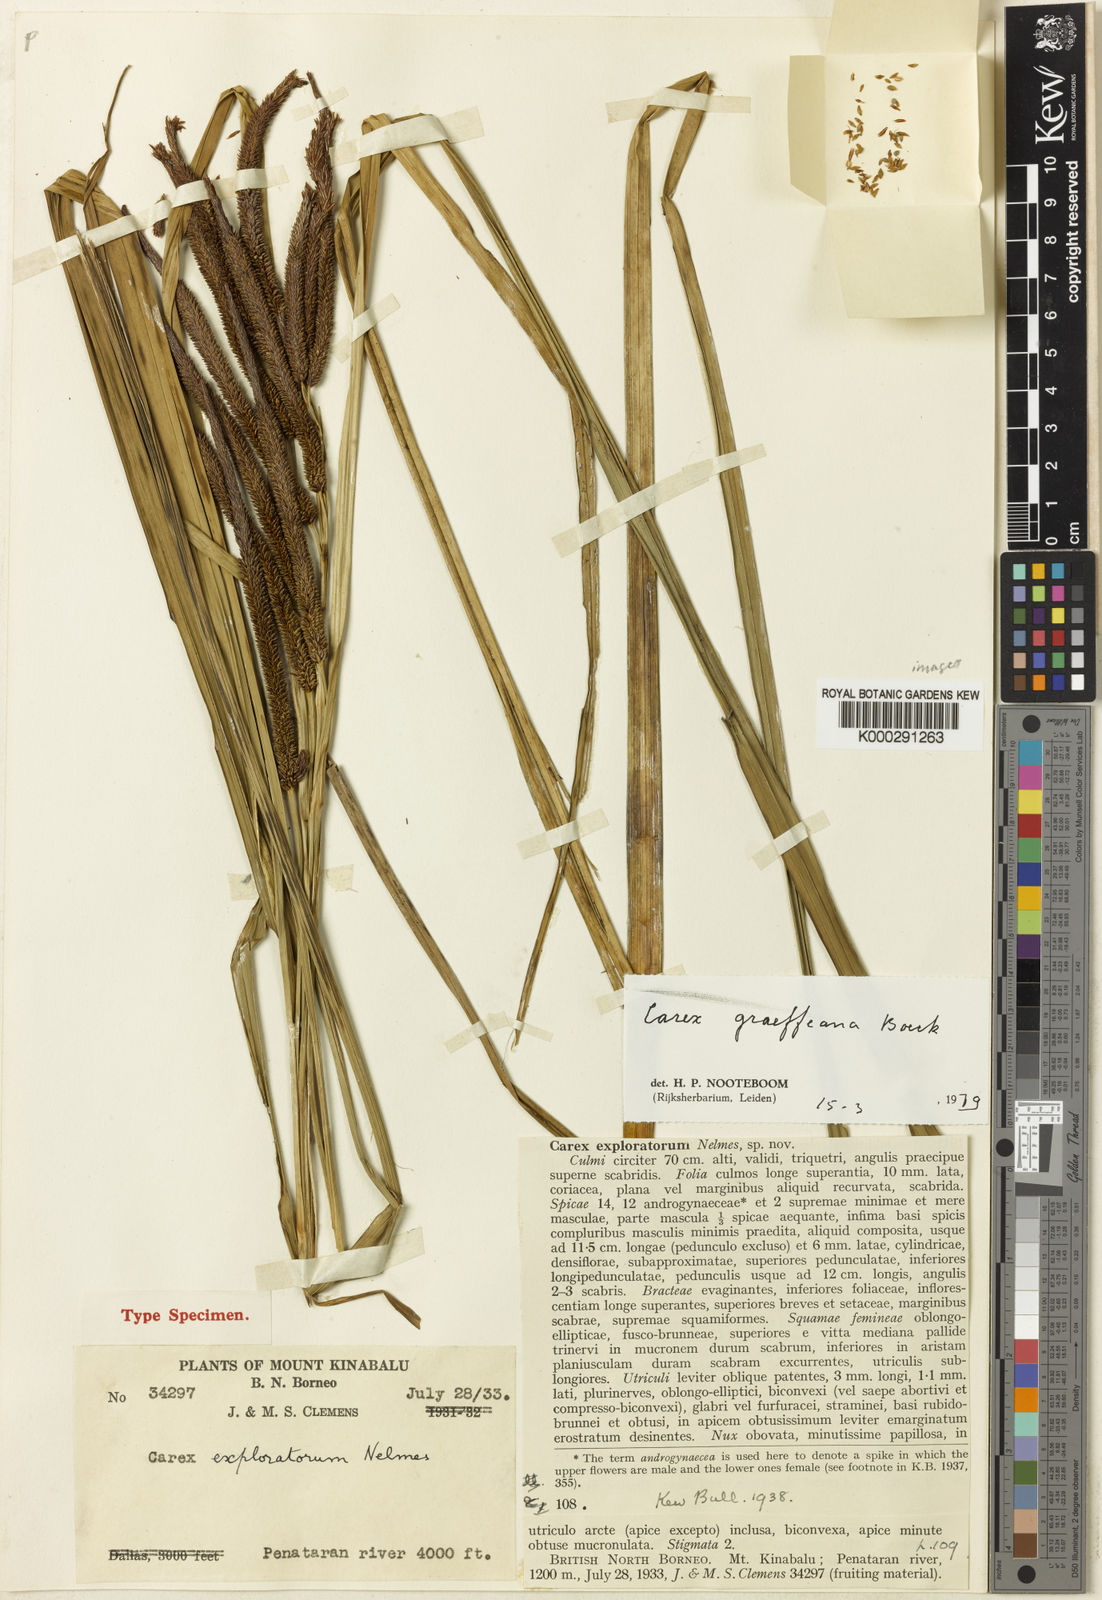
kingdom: Plantae
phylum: Tracheophyta
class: Liliopsida
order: Poales
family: Cyperaceae
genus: Carex
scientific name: Carex graeffeana
